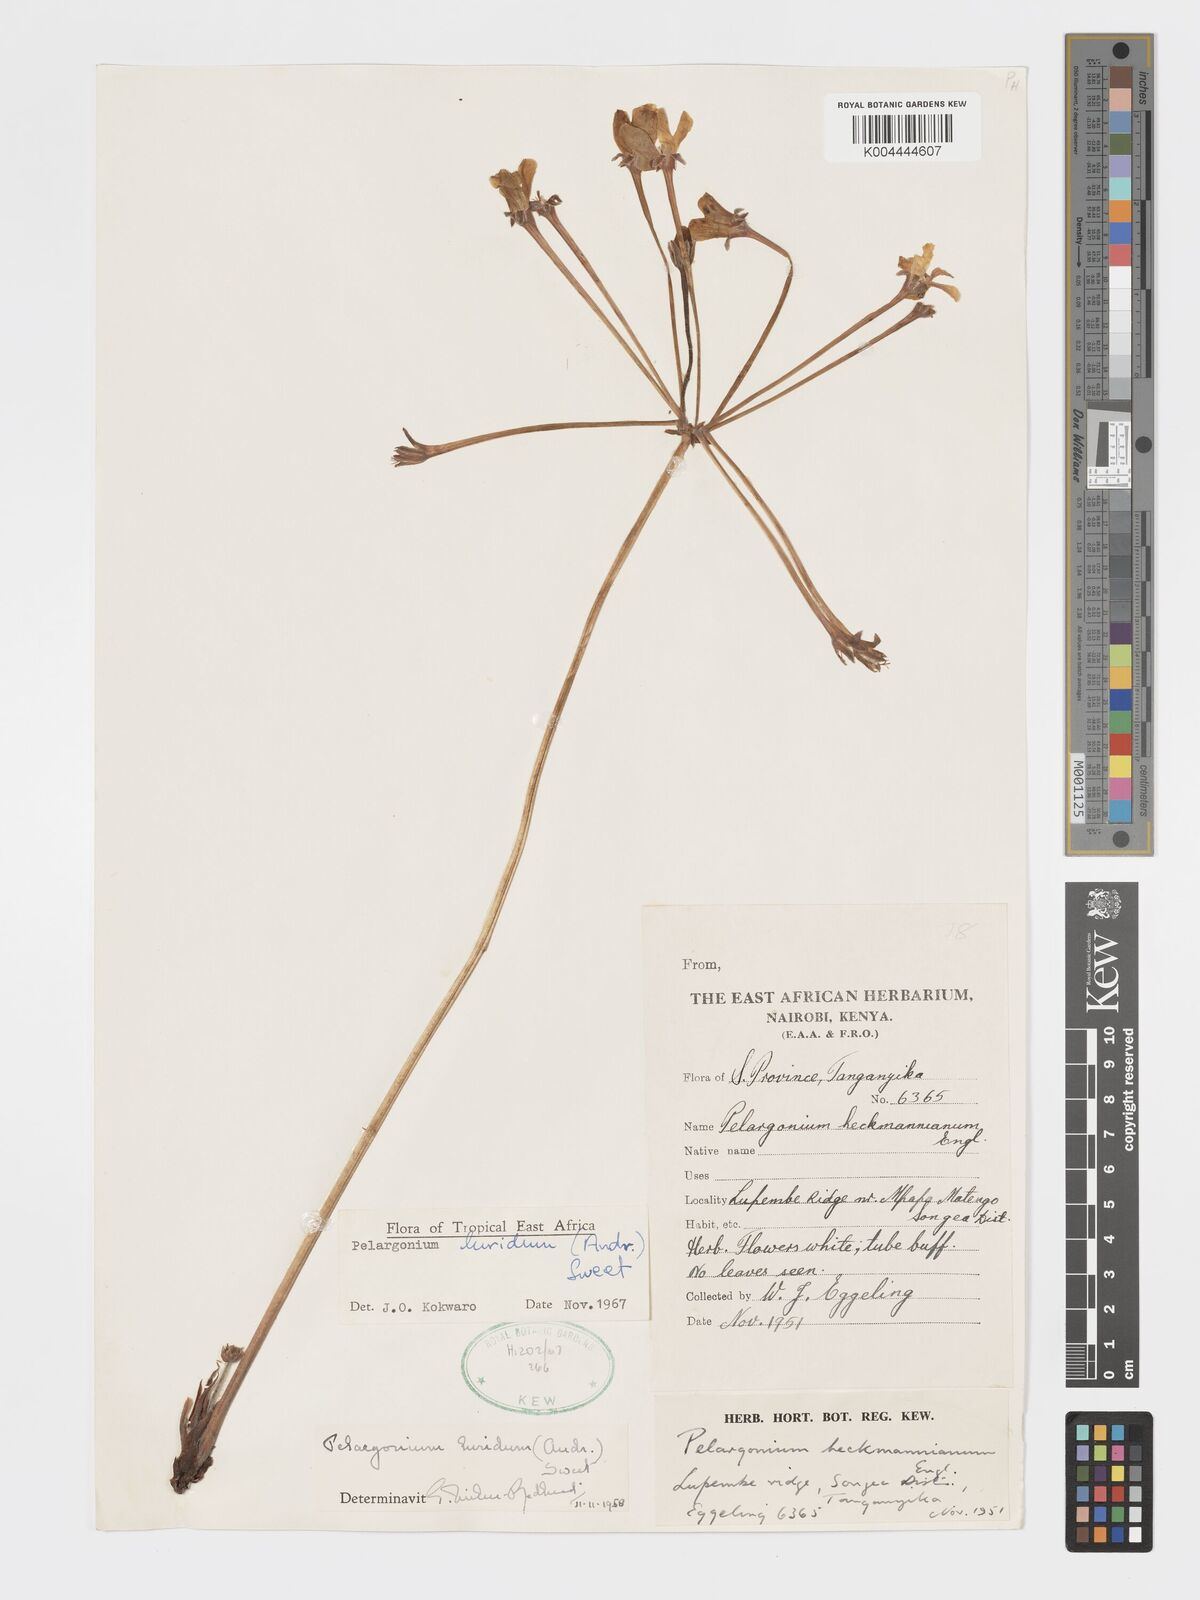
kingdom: Plantae
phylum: Tracheophyta
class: Magnoliopsida
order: Geraniales
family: Geraniaceae
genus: Pelargonium
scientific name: Pelargonium luridum
